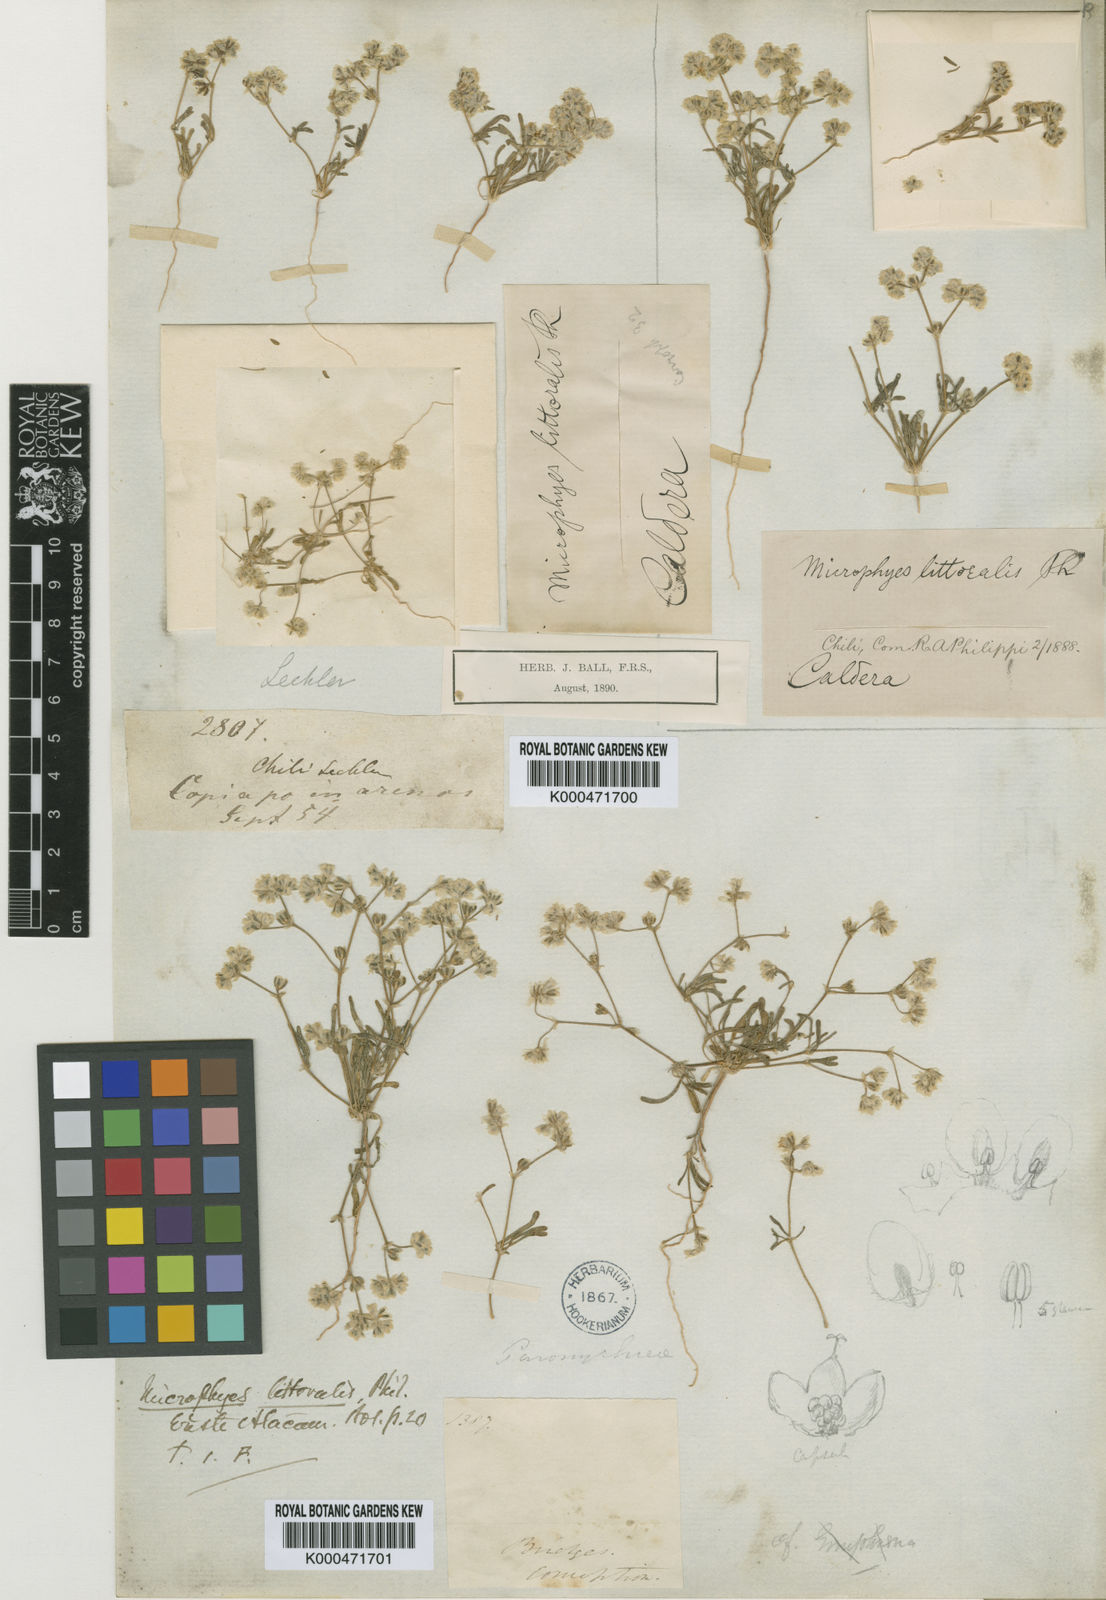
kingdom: Plantae
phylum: Tracheophyta
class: Magnoliopsida
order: Caryophyllales
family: Caryophyllaceae
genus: Microphyes
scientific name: Microphyes litoralis
